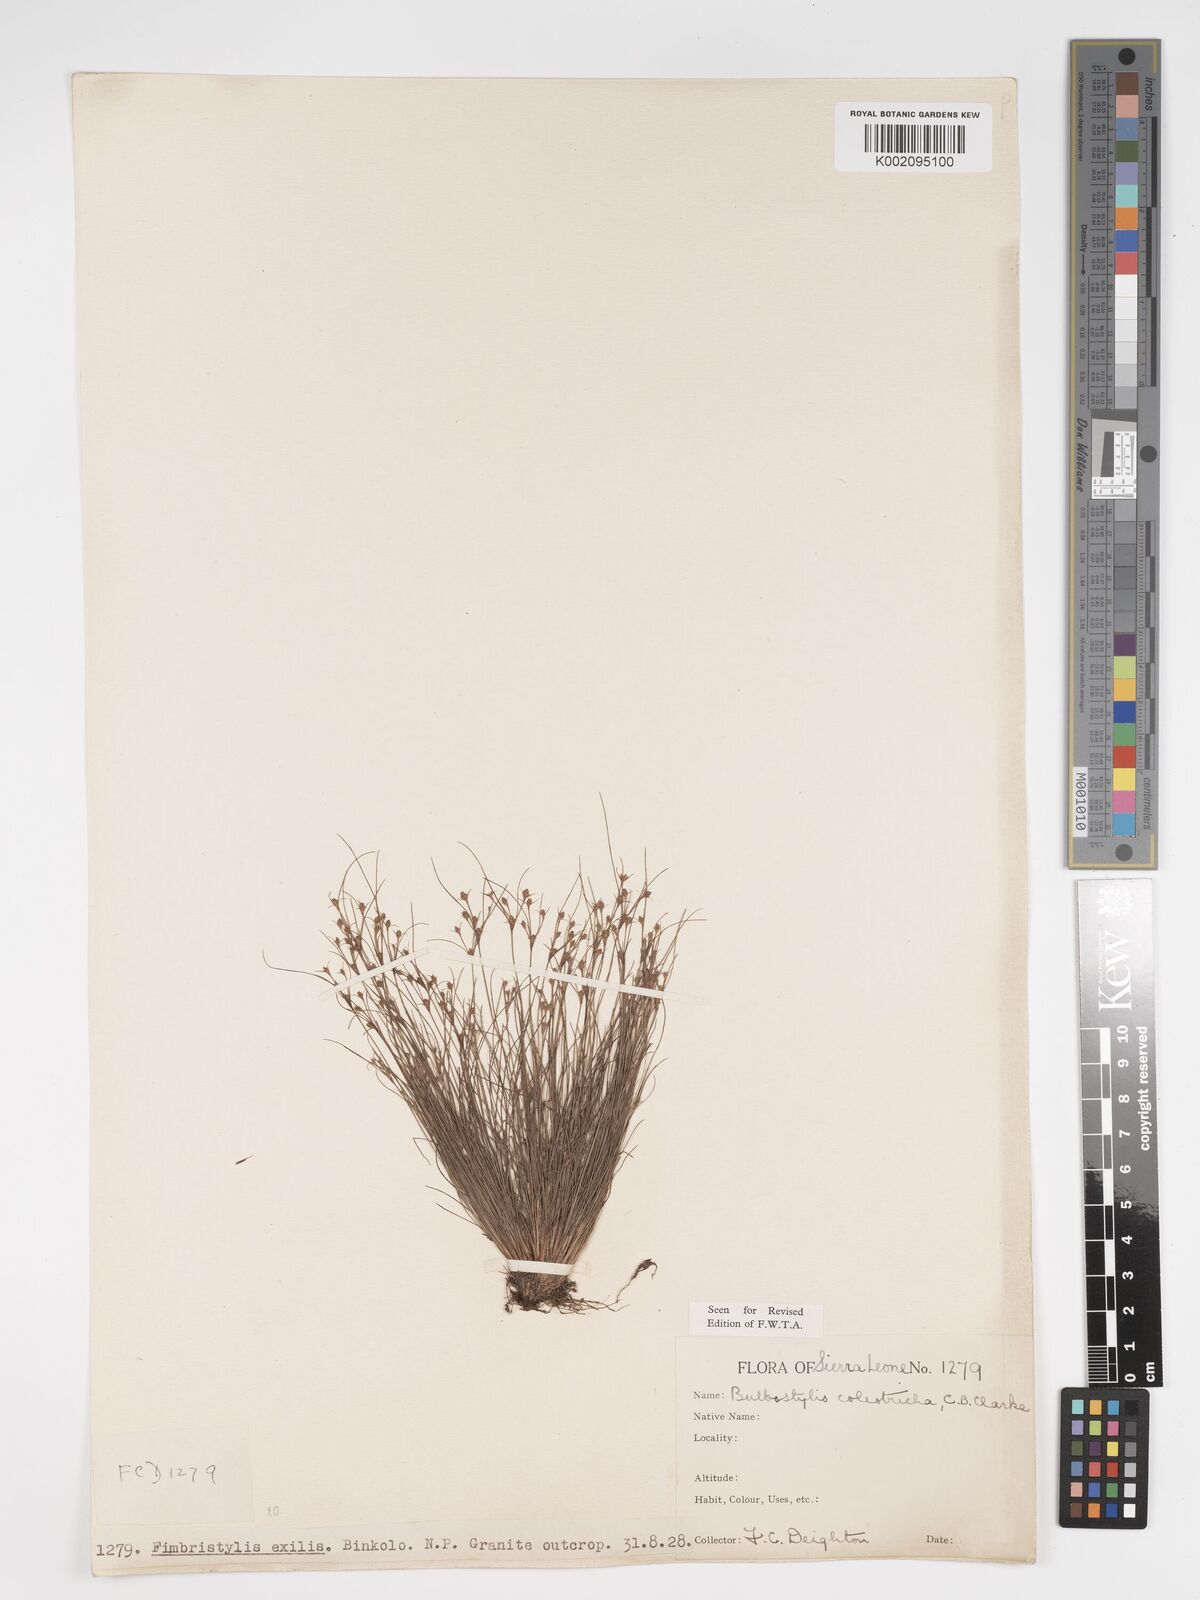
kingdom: Plantae
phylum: Tracheophyta
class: Liliopsida
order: Poales
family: Cyperaceae
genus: Bulbostylis
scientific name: Bulbostylis coleotricha
